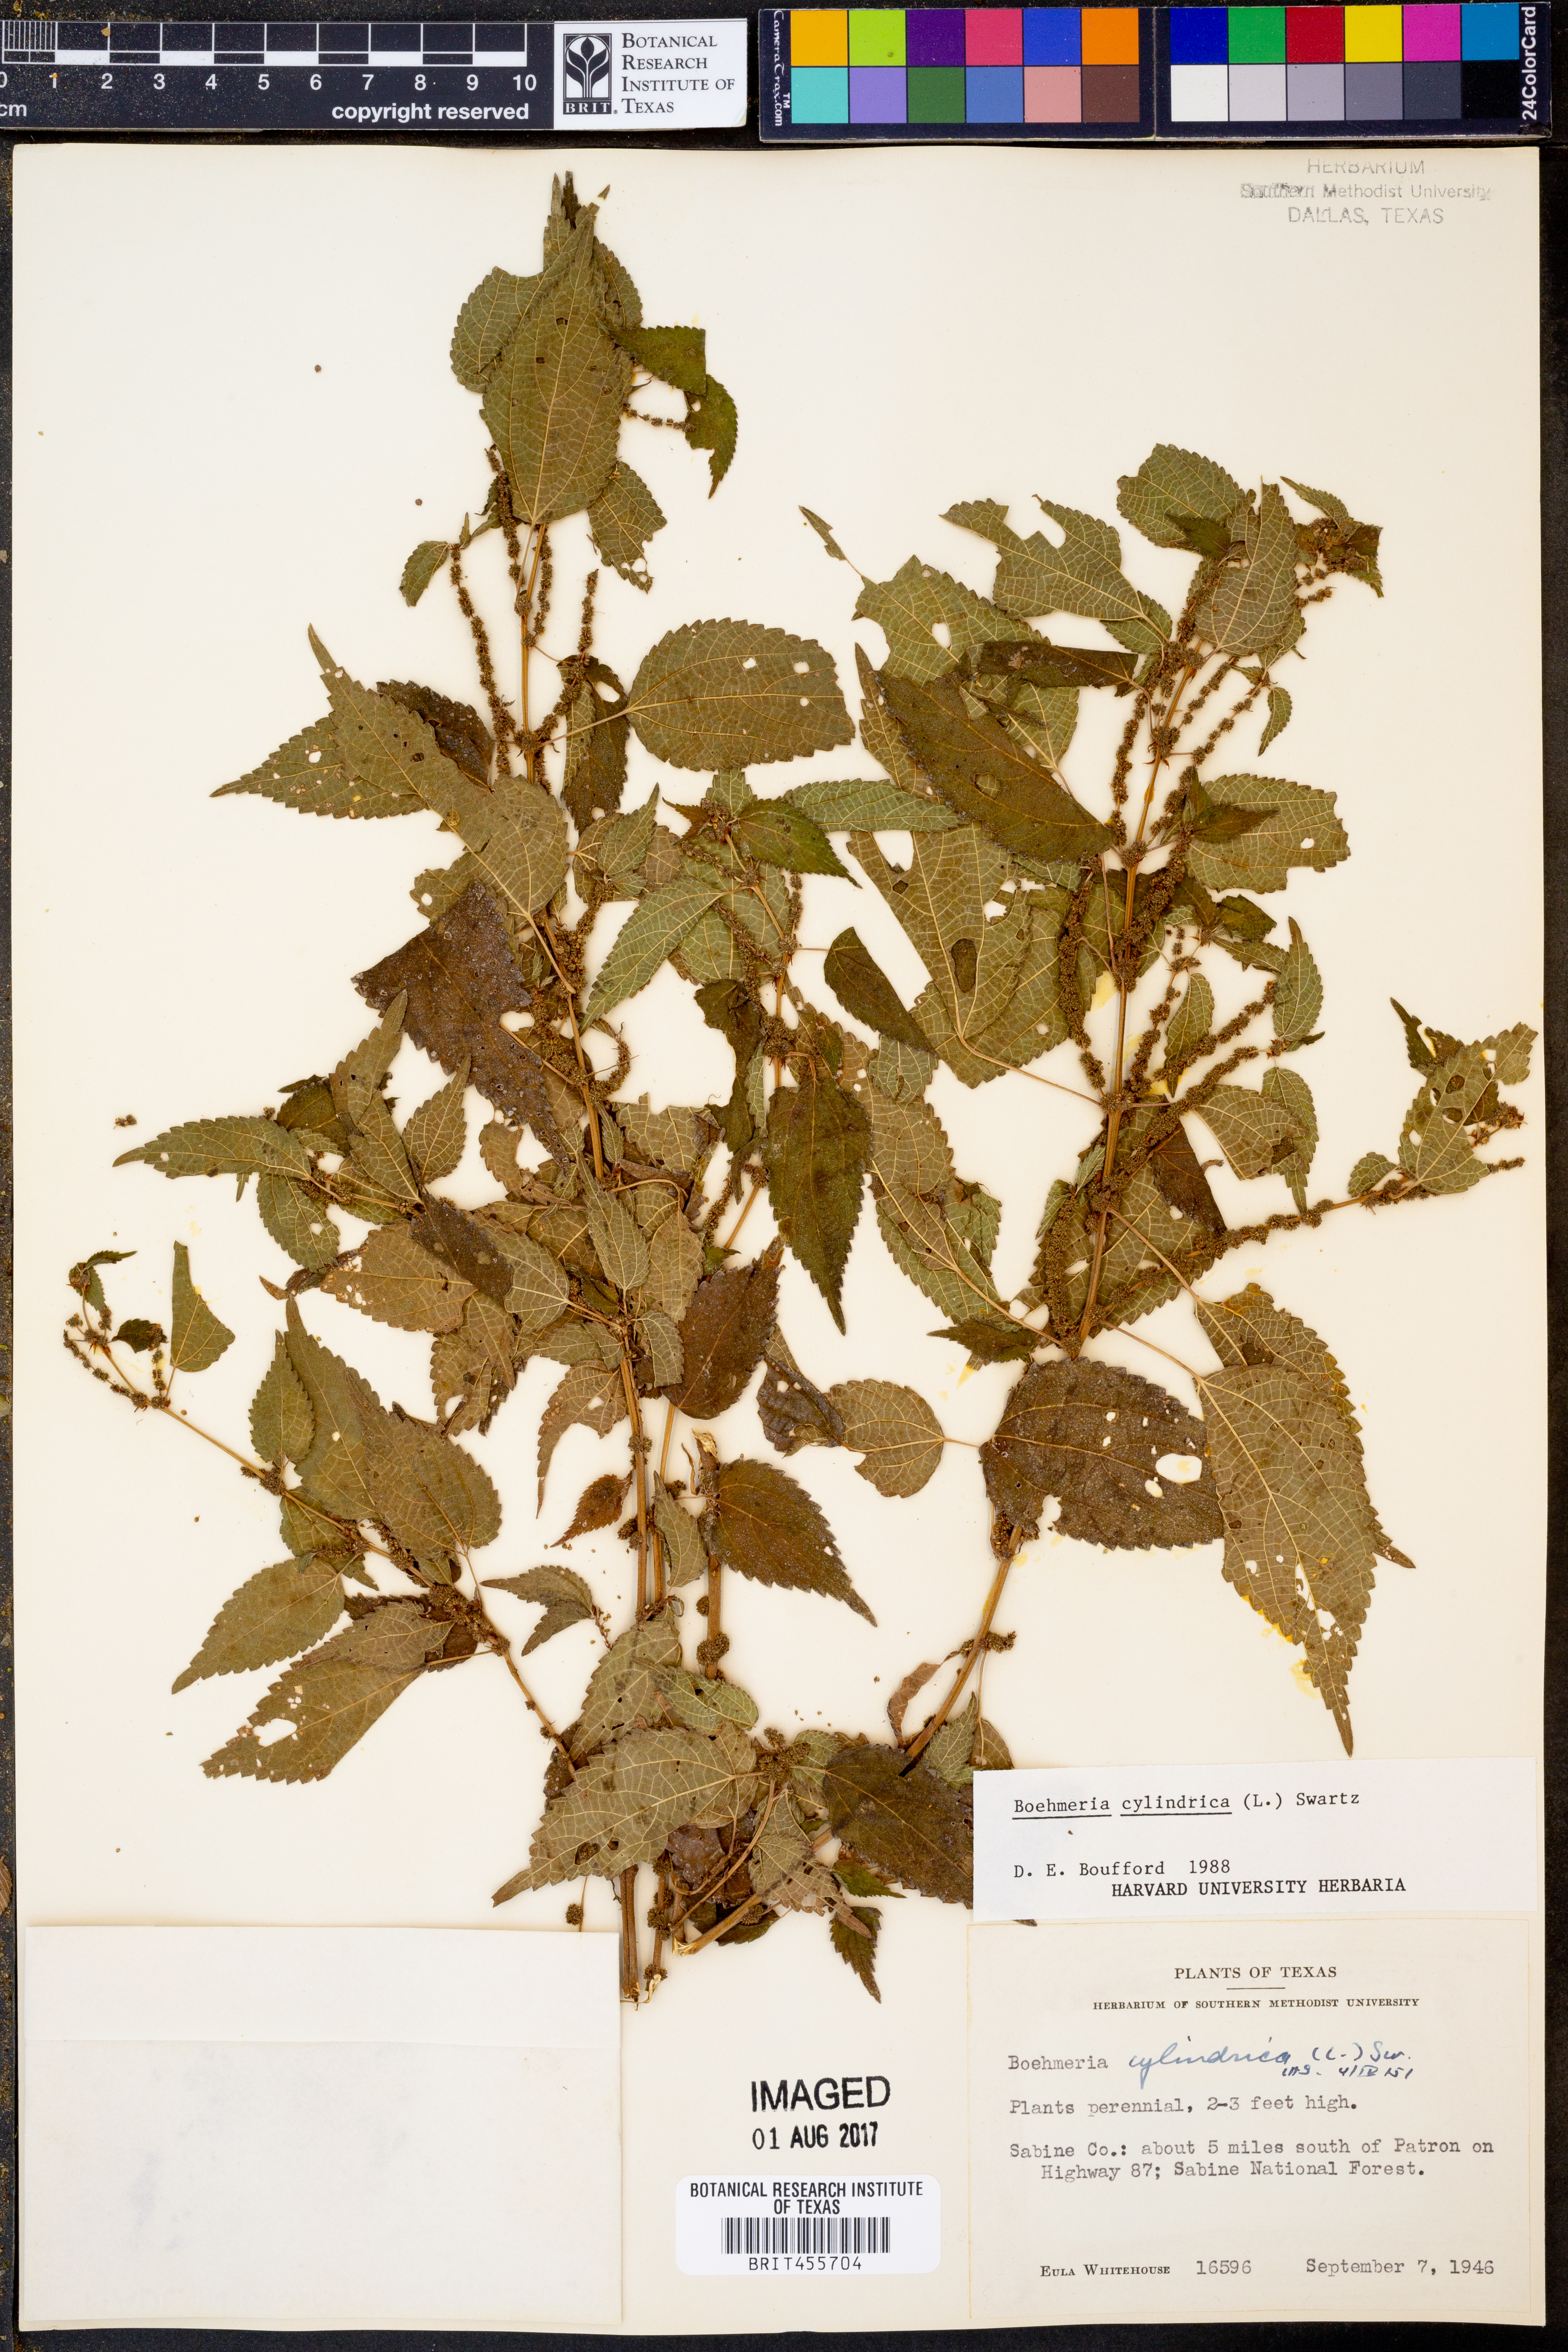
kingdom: Plantae
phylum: Tracheophyta
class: Magnoliopsida
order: Rosales
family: Urticaceae
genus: Boehmeria
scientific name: Boehmeria cylindrica
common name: Bog-hemp
